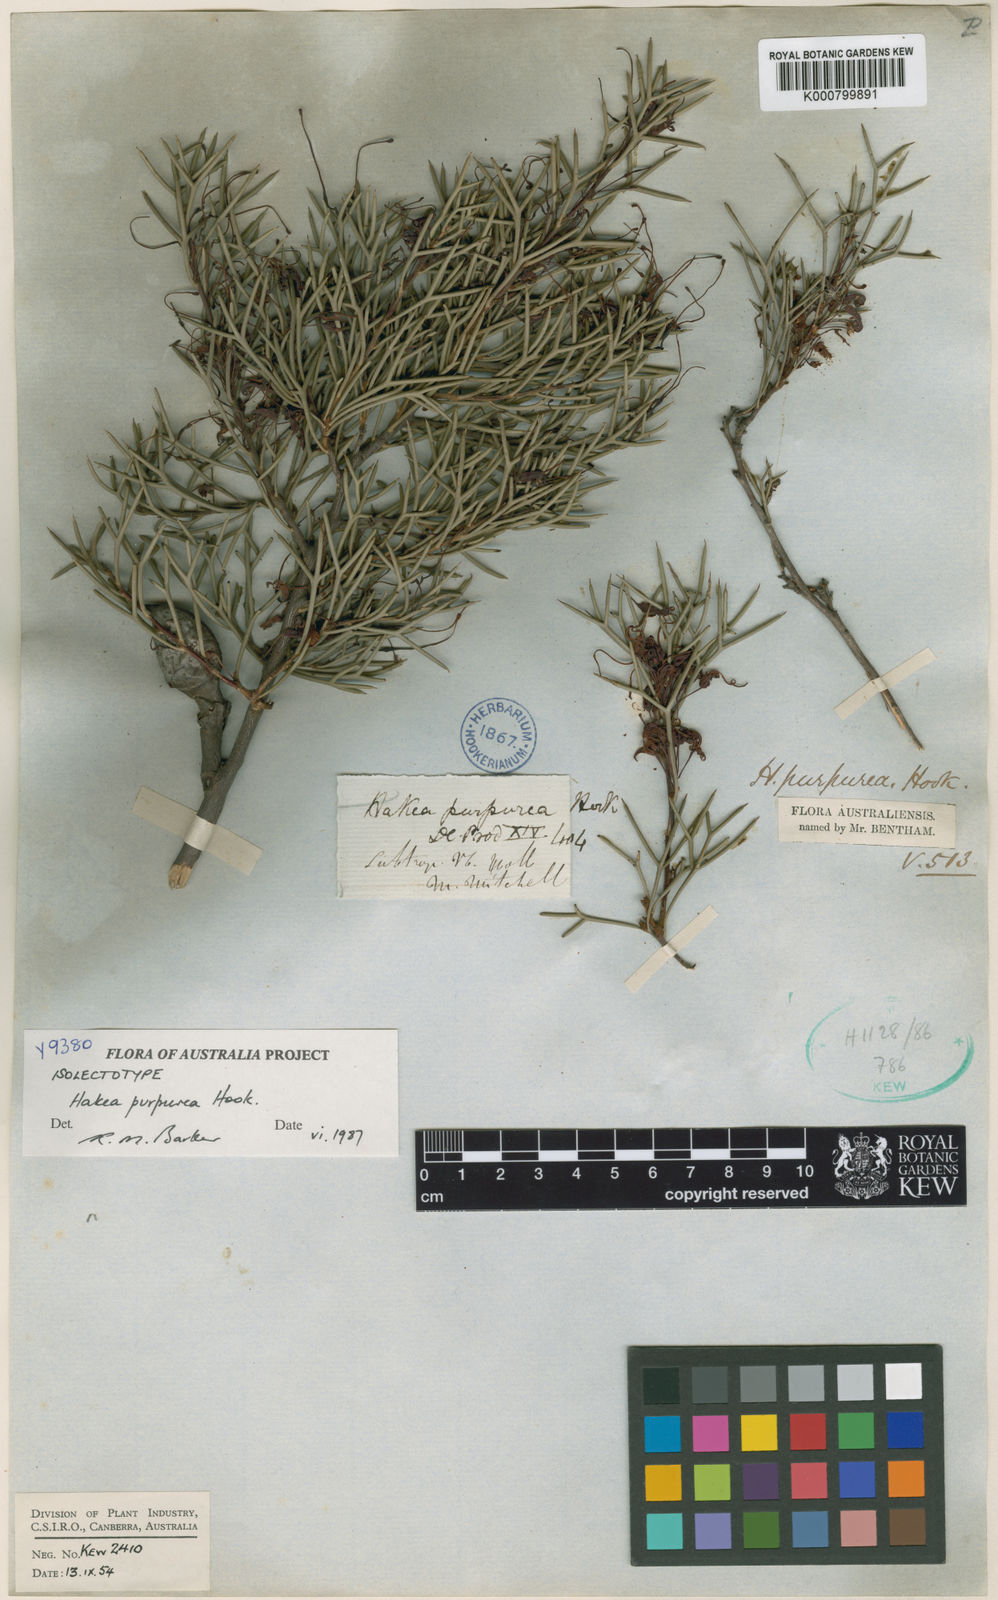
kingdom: Plantae
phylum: Tracheophyta
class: Magnoliopsida
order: Proteales
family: Proteaceae
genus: Hakea
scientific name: Hakea purpurea
